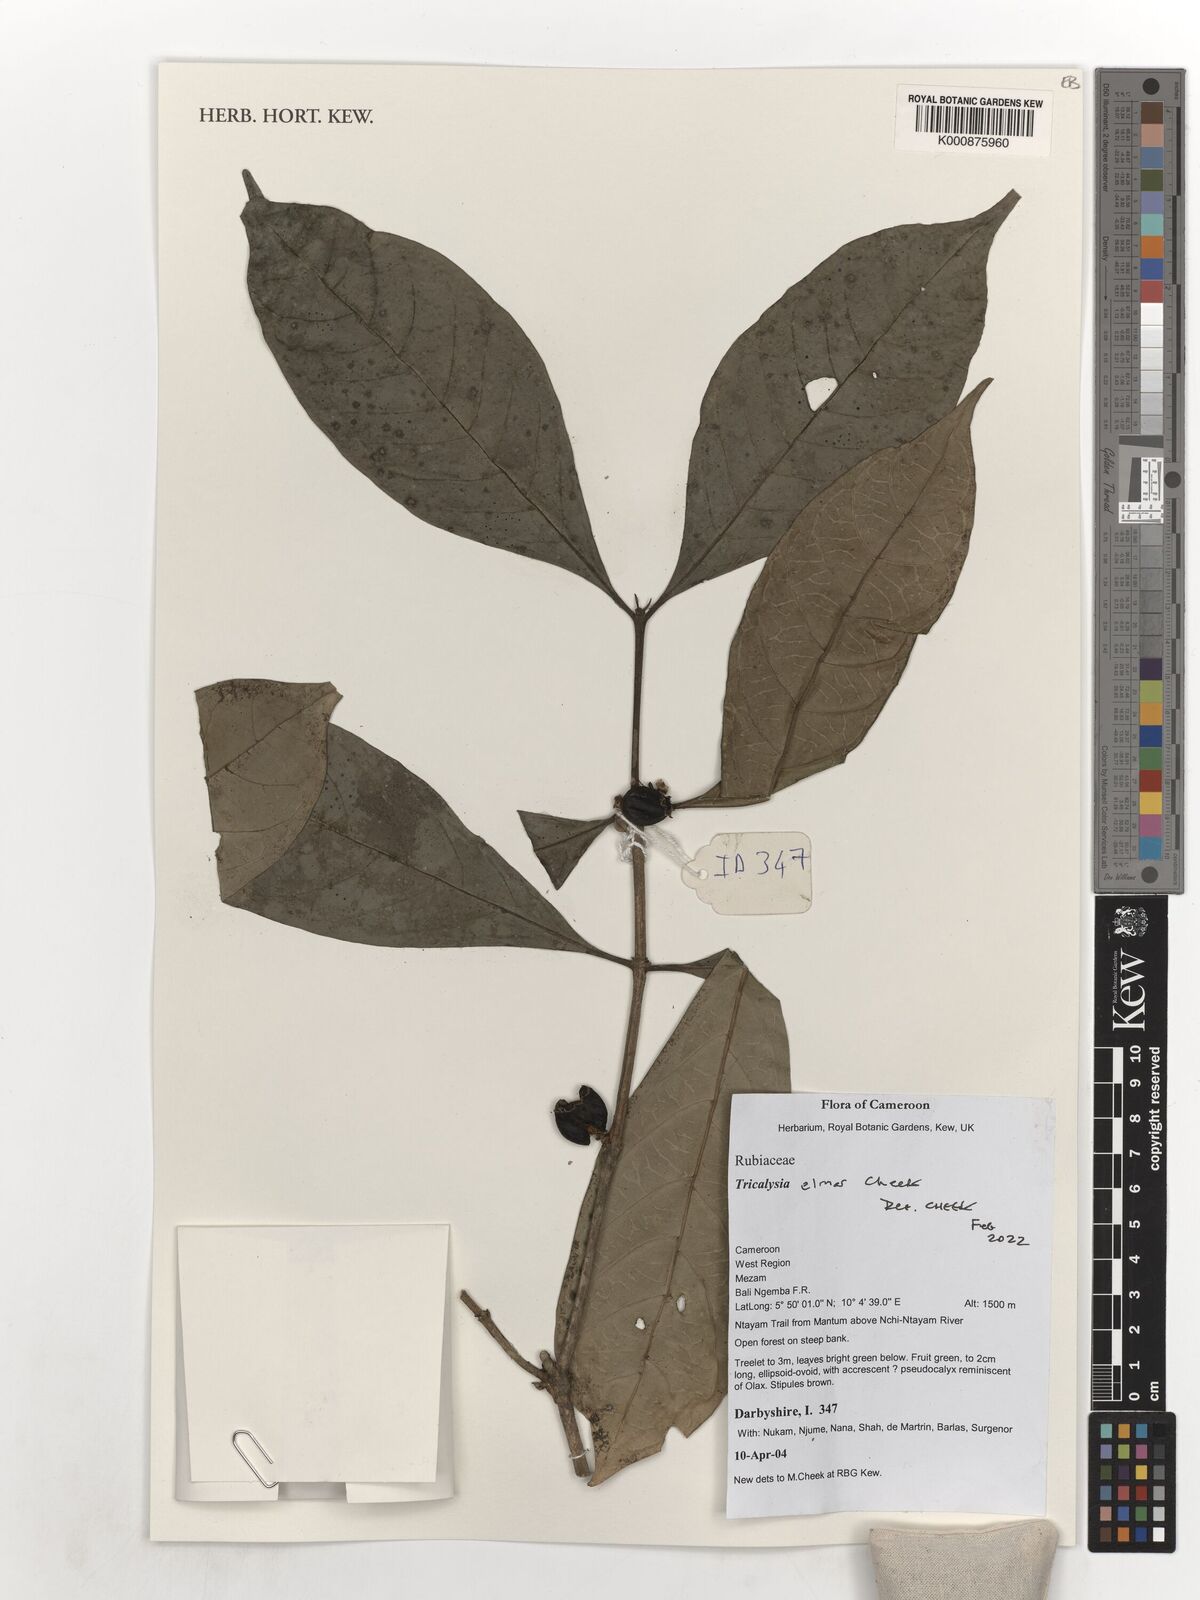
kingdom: Plantae
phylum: Tracheophyta
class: Magnoliopsida
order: Gentianales
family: Rubiaceae
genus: Tricalysia
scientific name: Tricalysia
